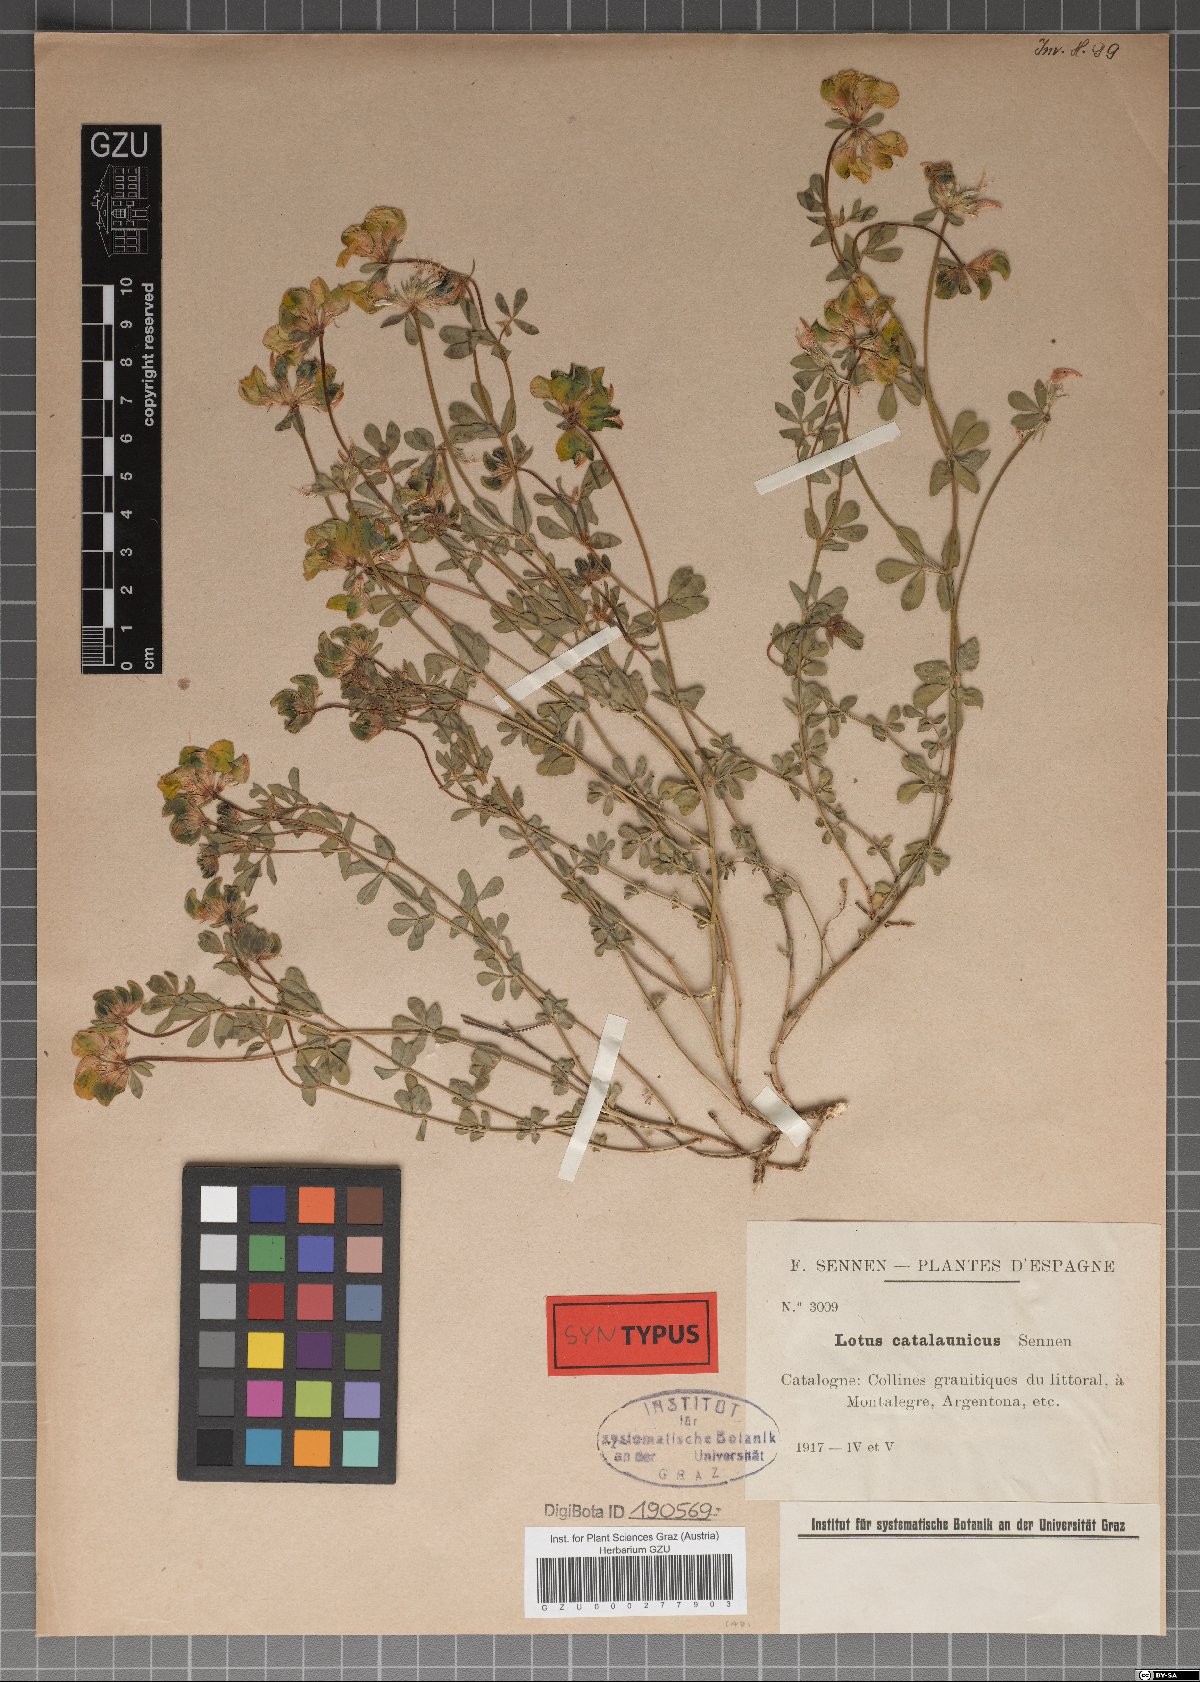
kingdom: Plantae
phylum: Tracheophyta
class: Magnoliopsida
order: Fabales
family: Fabaceae
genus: Lotus
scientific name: Lotus corniculatus
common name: Common bird's-foot-trefoil
